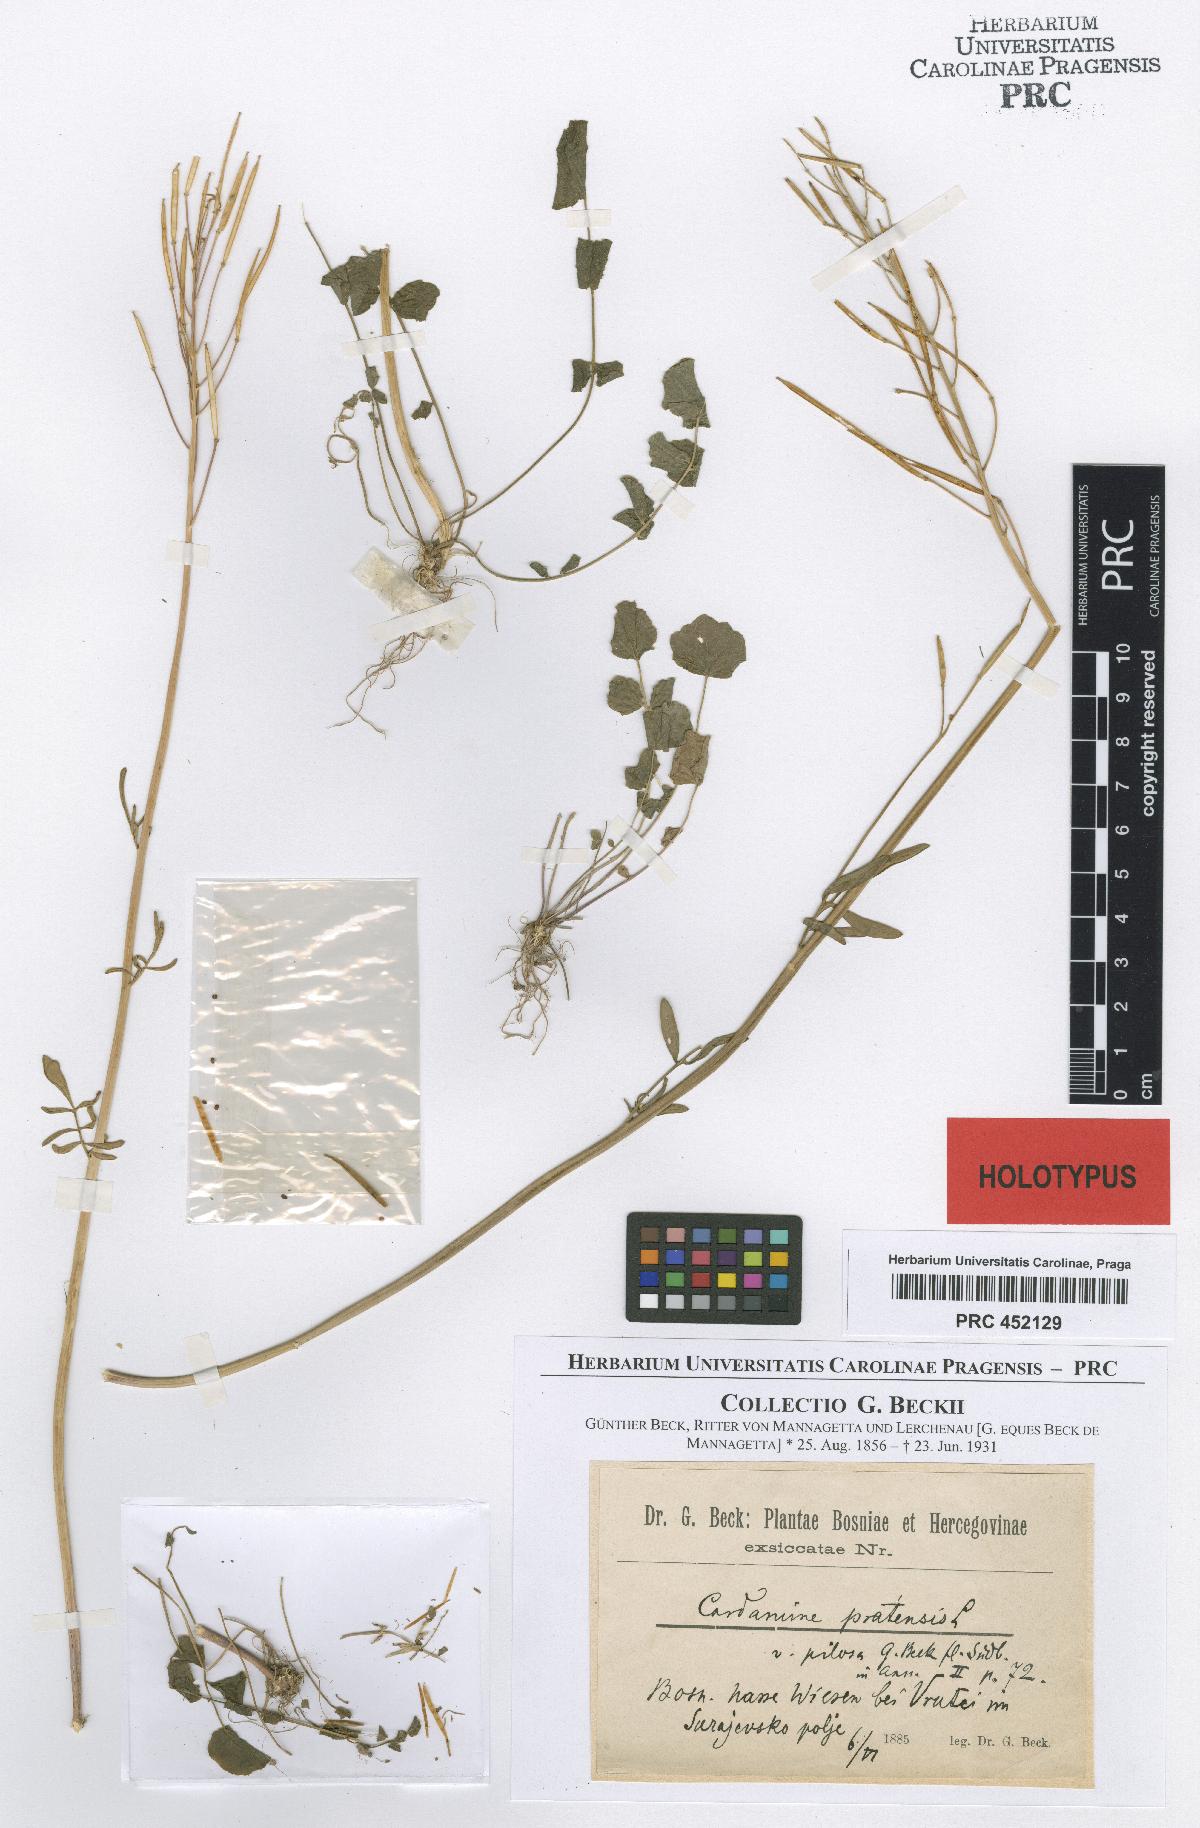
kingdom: Plantae
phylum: Tracheophyta
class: Magnoliopsida
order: Brassicales
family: Brassicaceae
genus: Cardamine
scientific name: Cardamine pratensis
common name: Cuckoo flower
